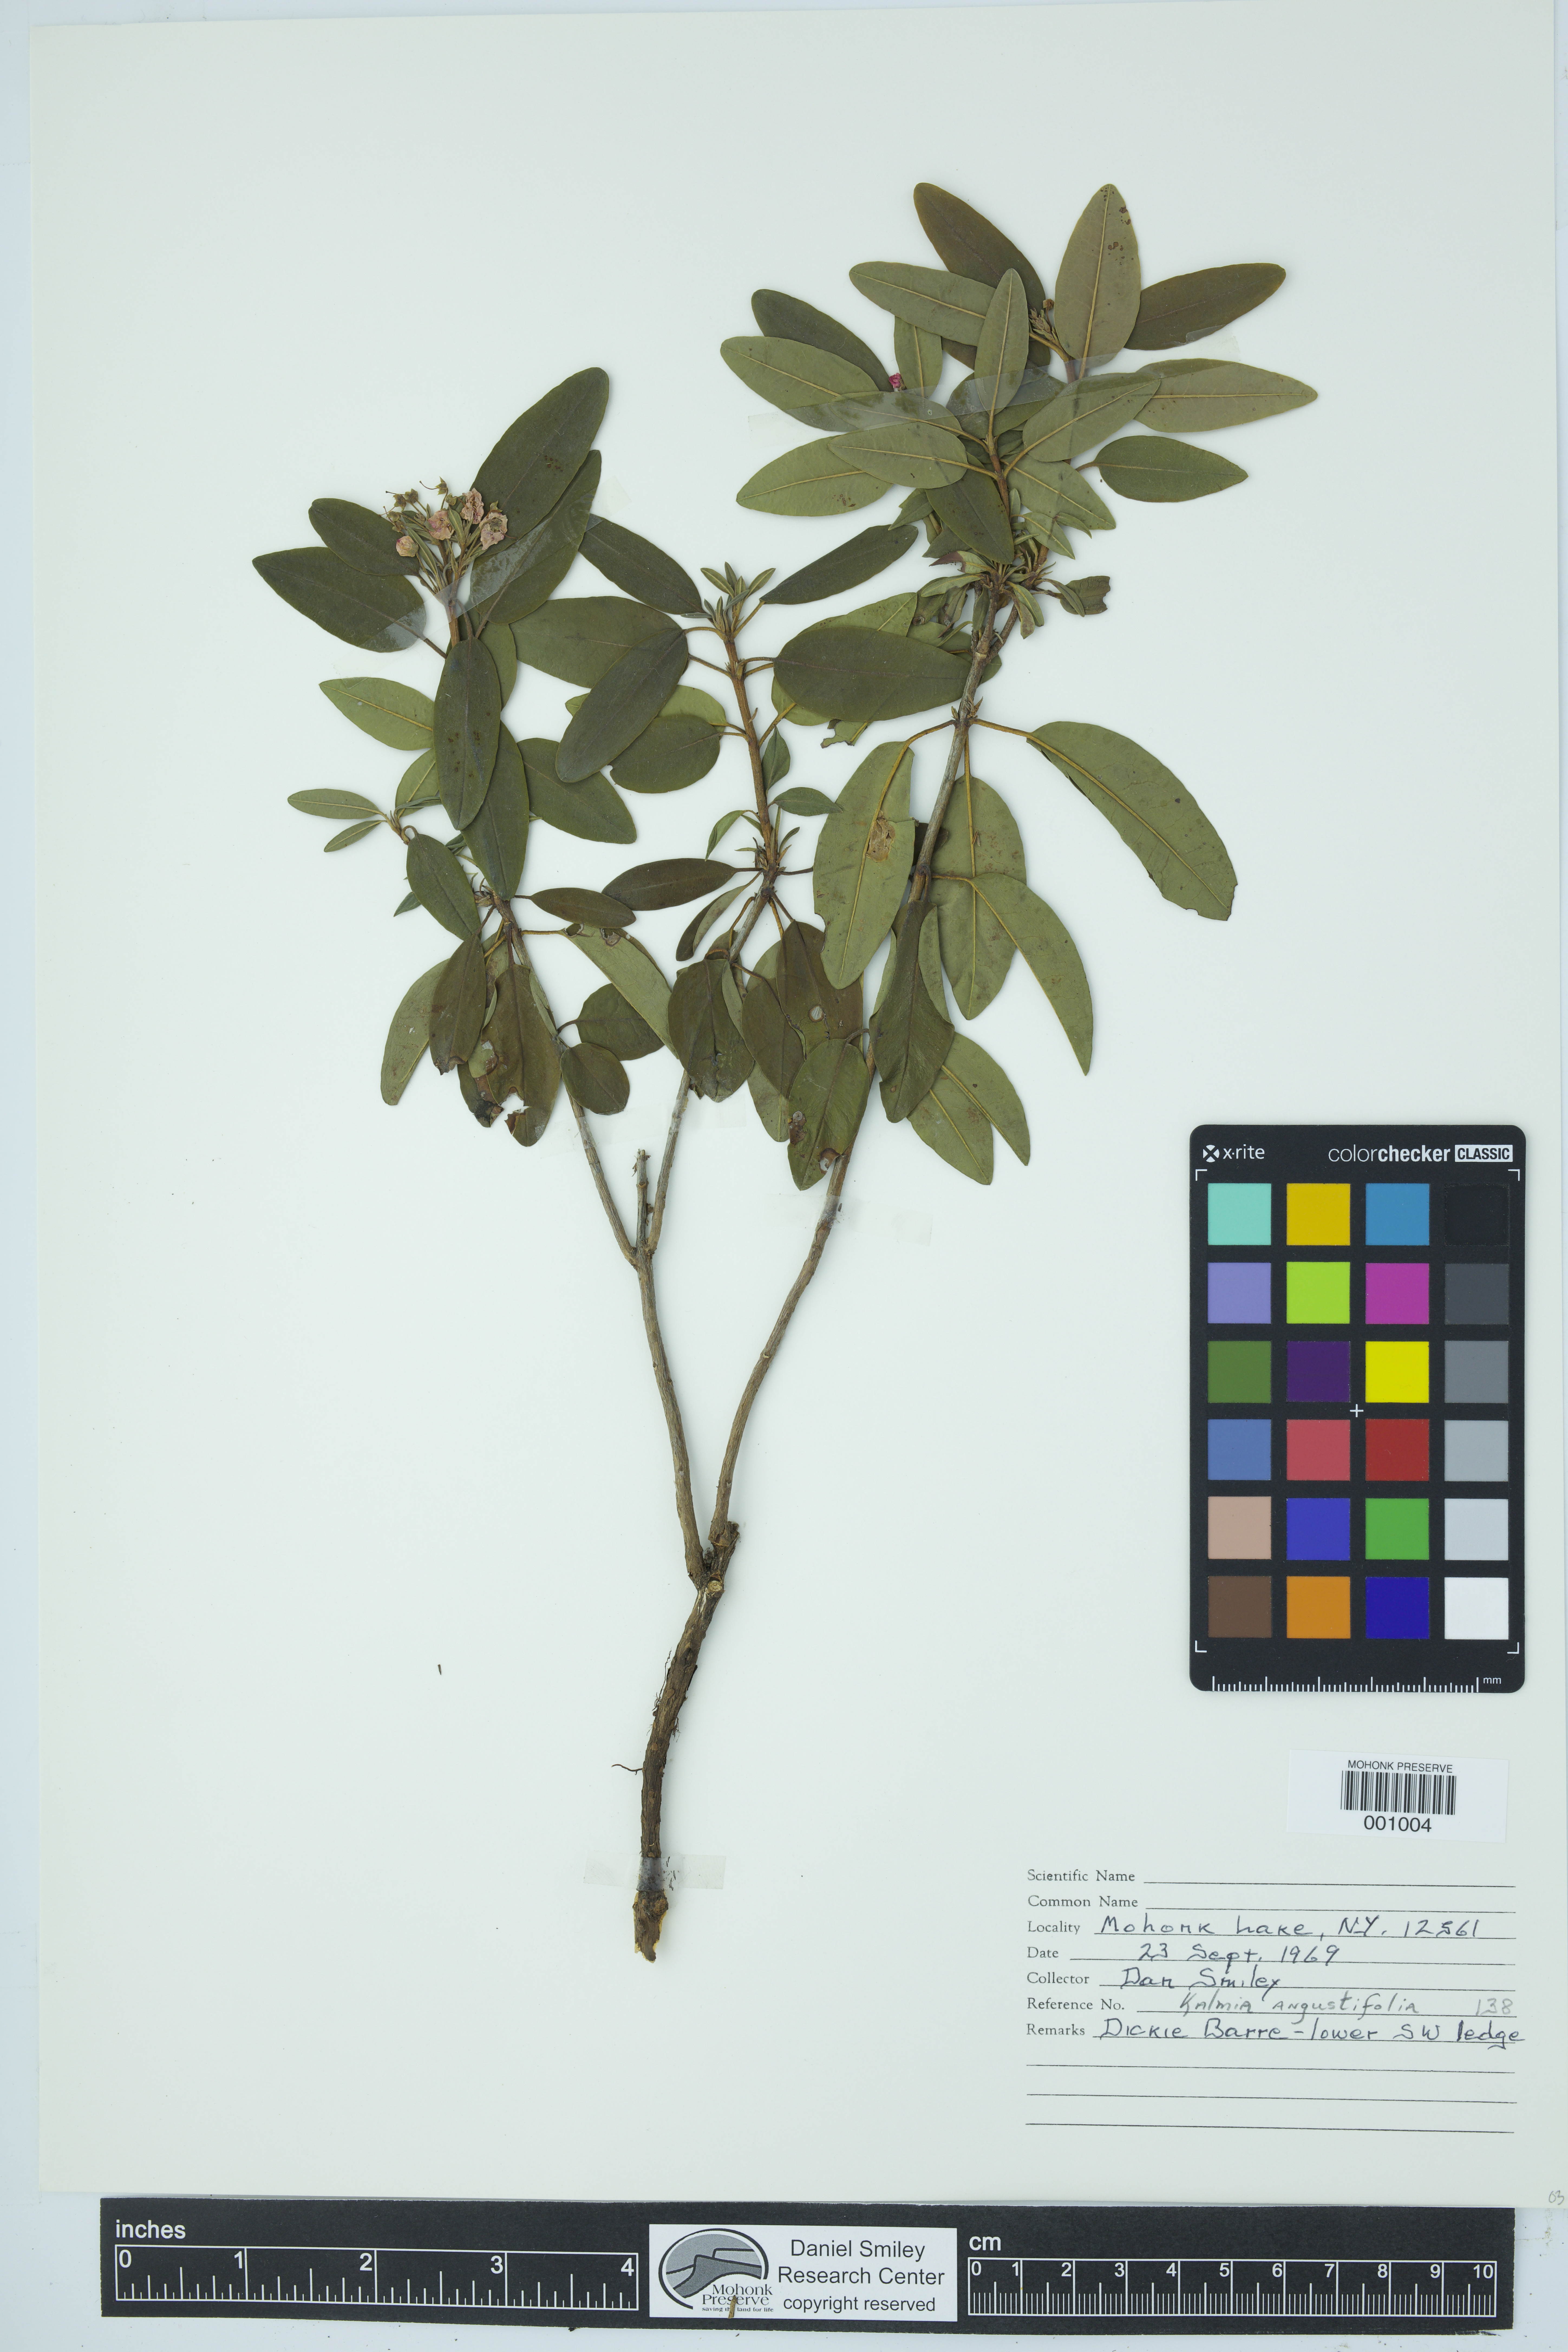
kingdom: Plantae
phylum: Tracheophyta
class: Magnoliopsida
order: Ericales
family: Ericaceae
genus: Kalmia
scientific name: Kalmia angustifolia
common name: Sheep-laurel
